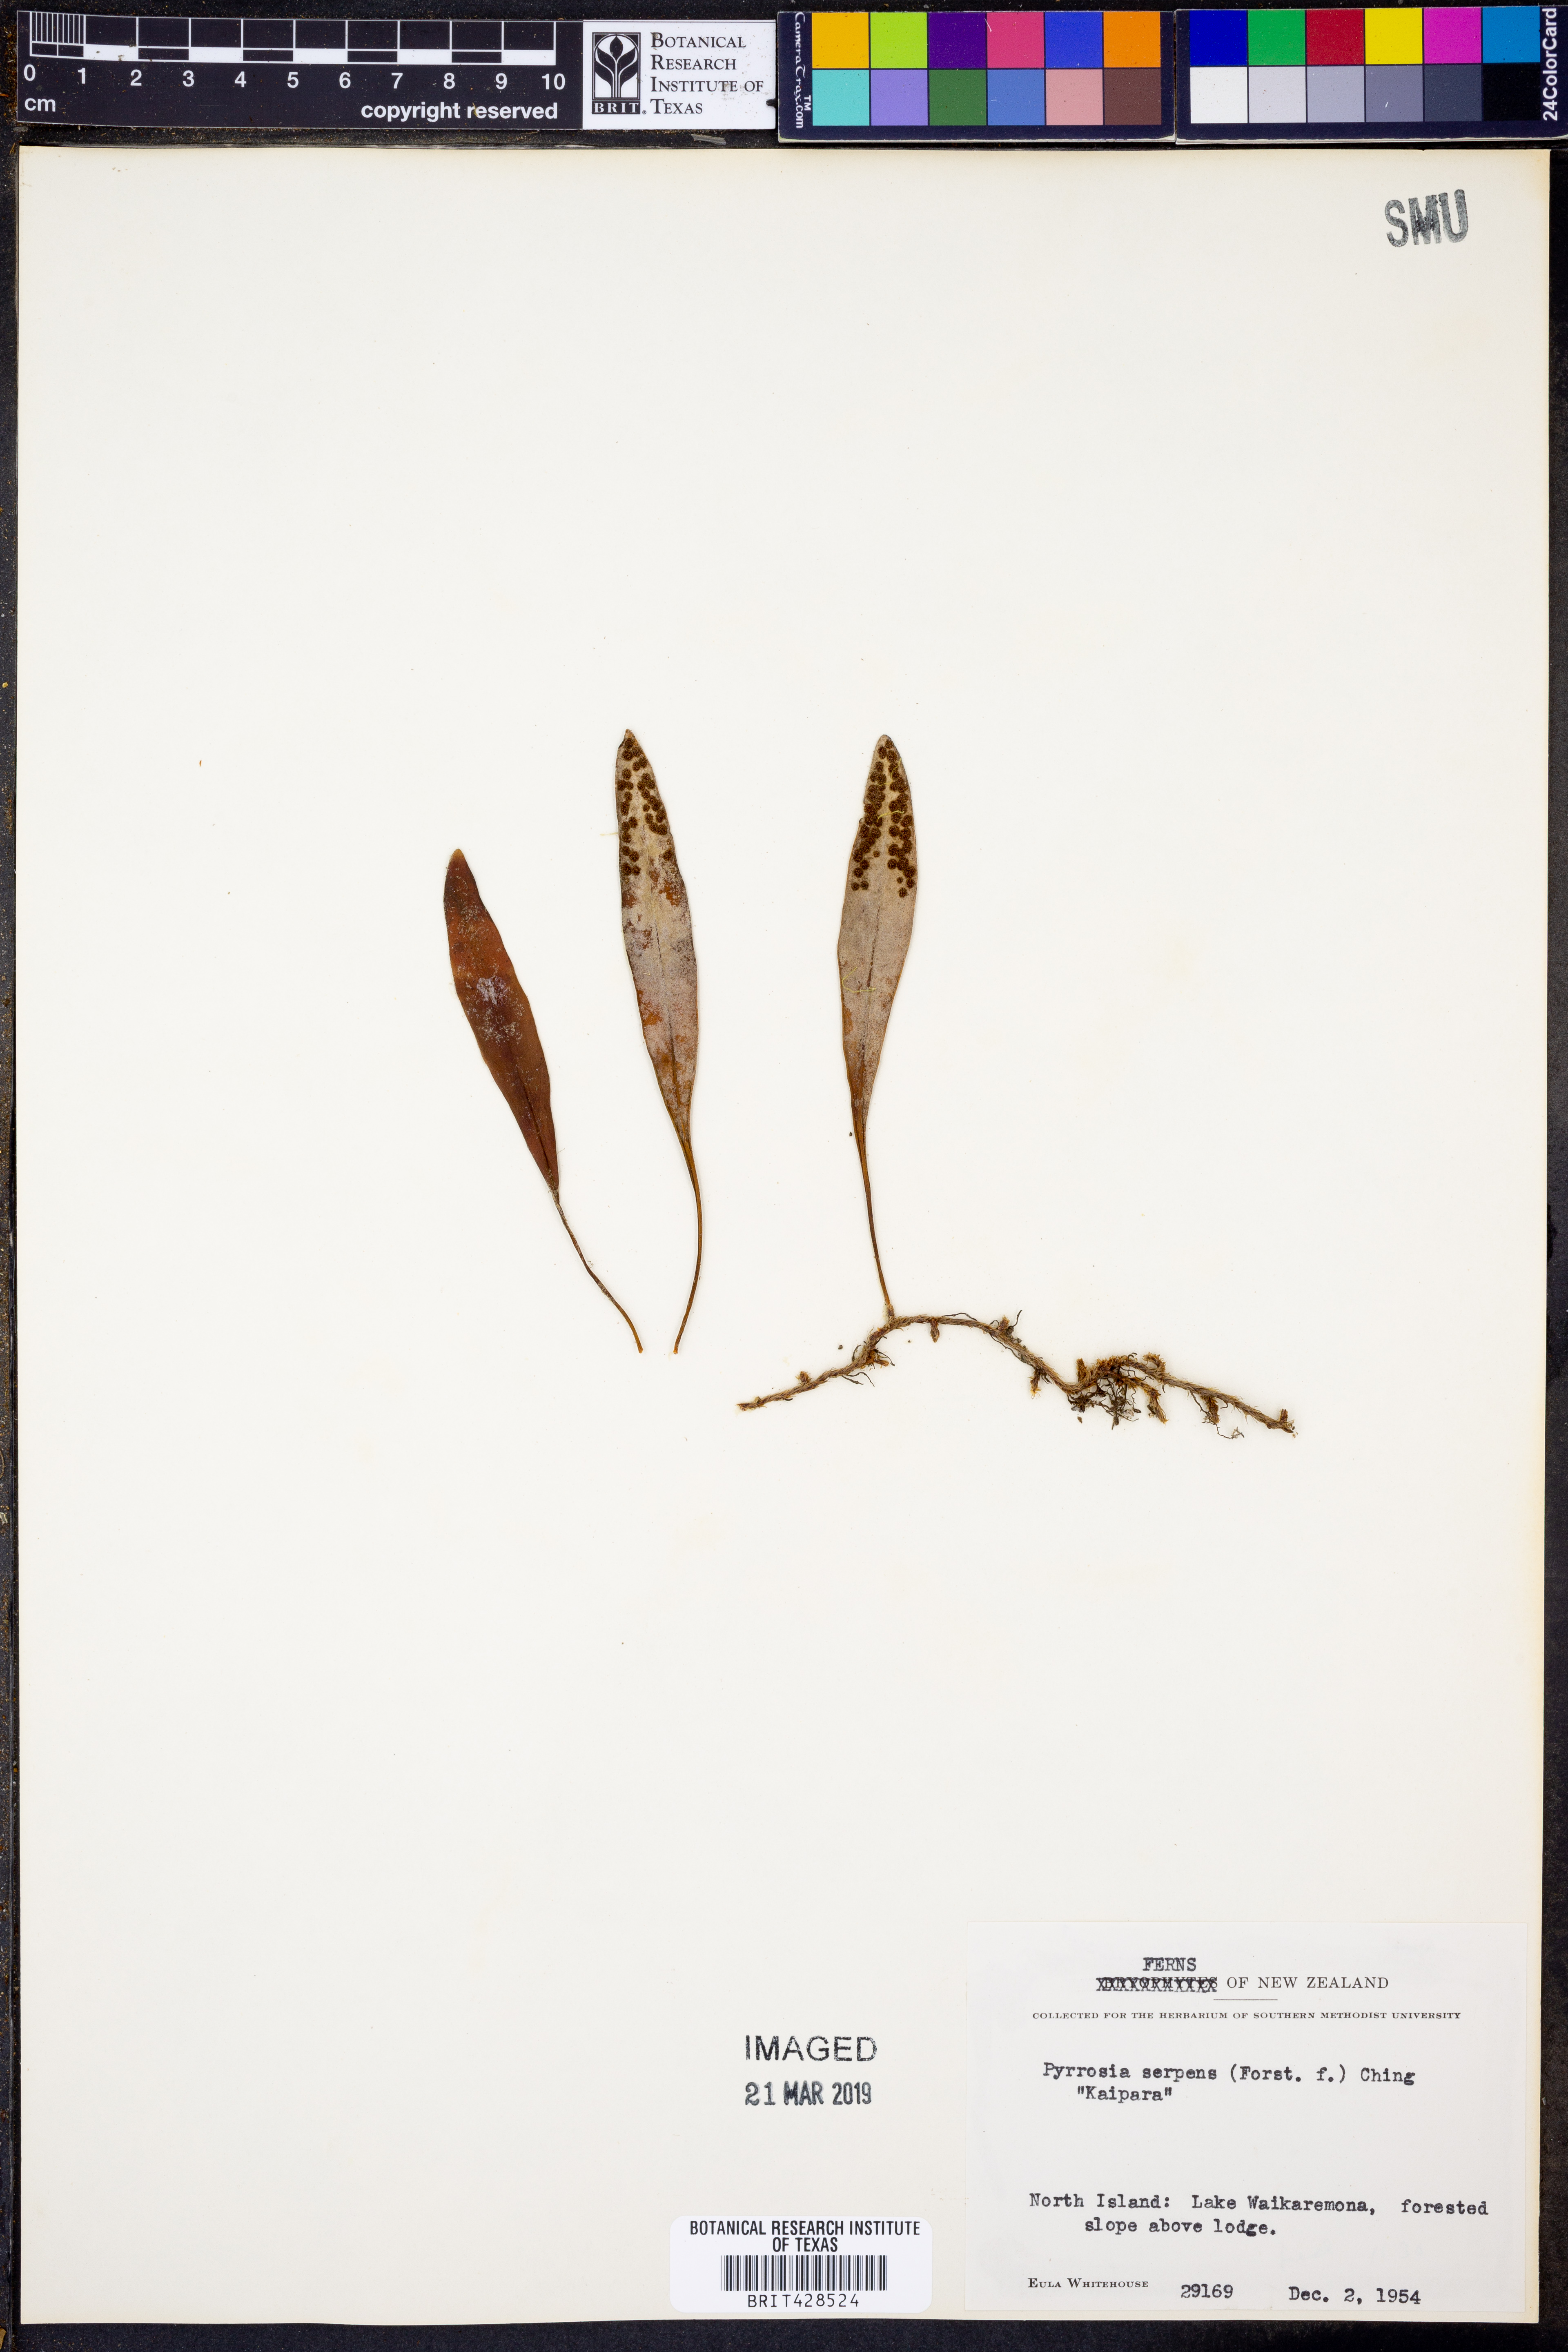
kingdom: Plantae
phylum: Tracheophyta
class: Polypodiopsida
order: Polypodiales
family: Polypodiaceae
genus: Pyrrosia
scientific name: Pyrrosia serpens
